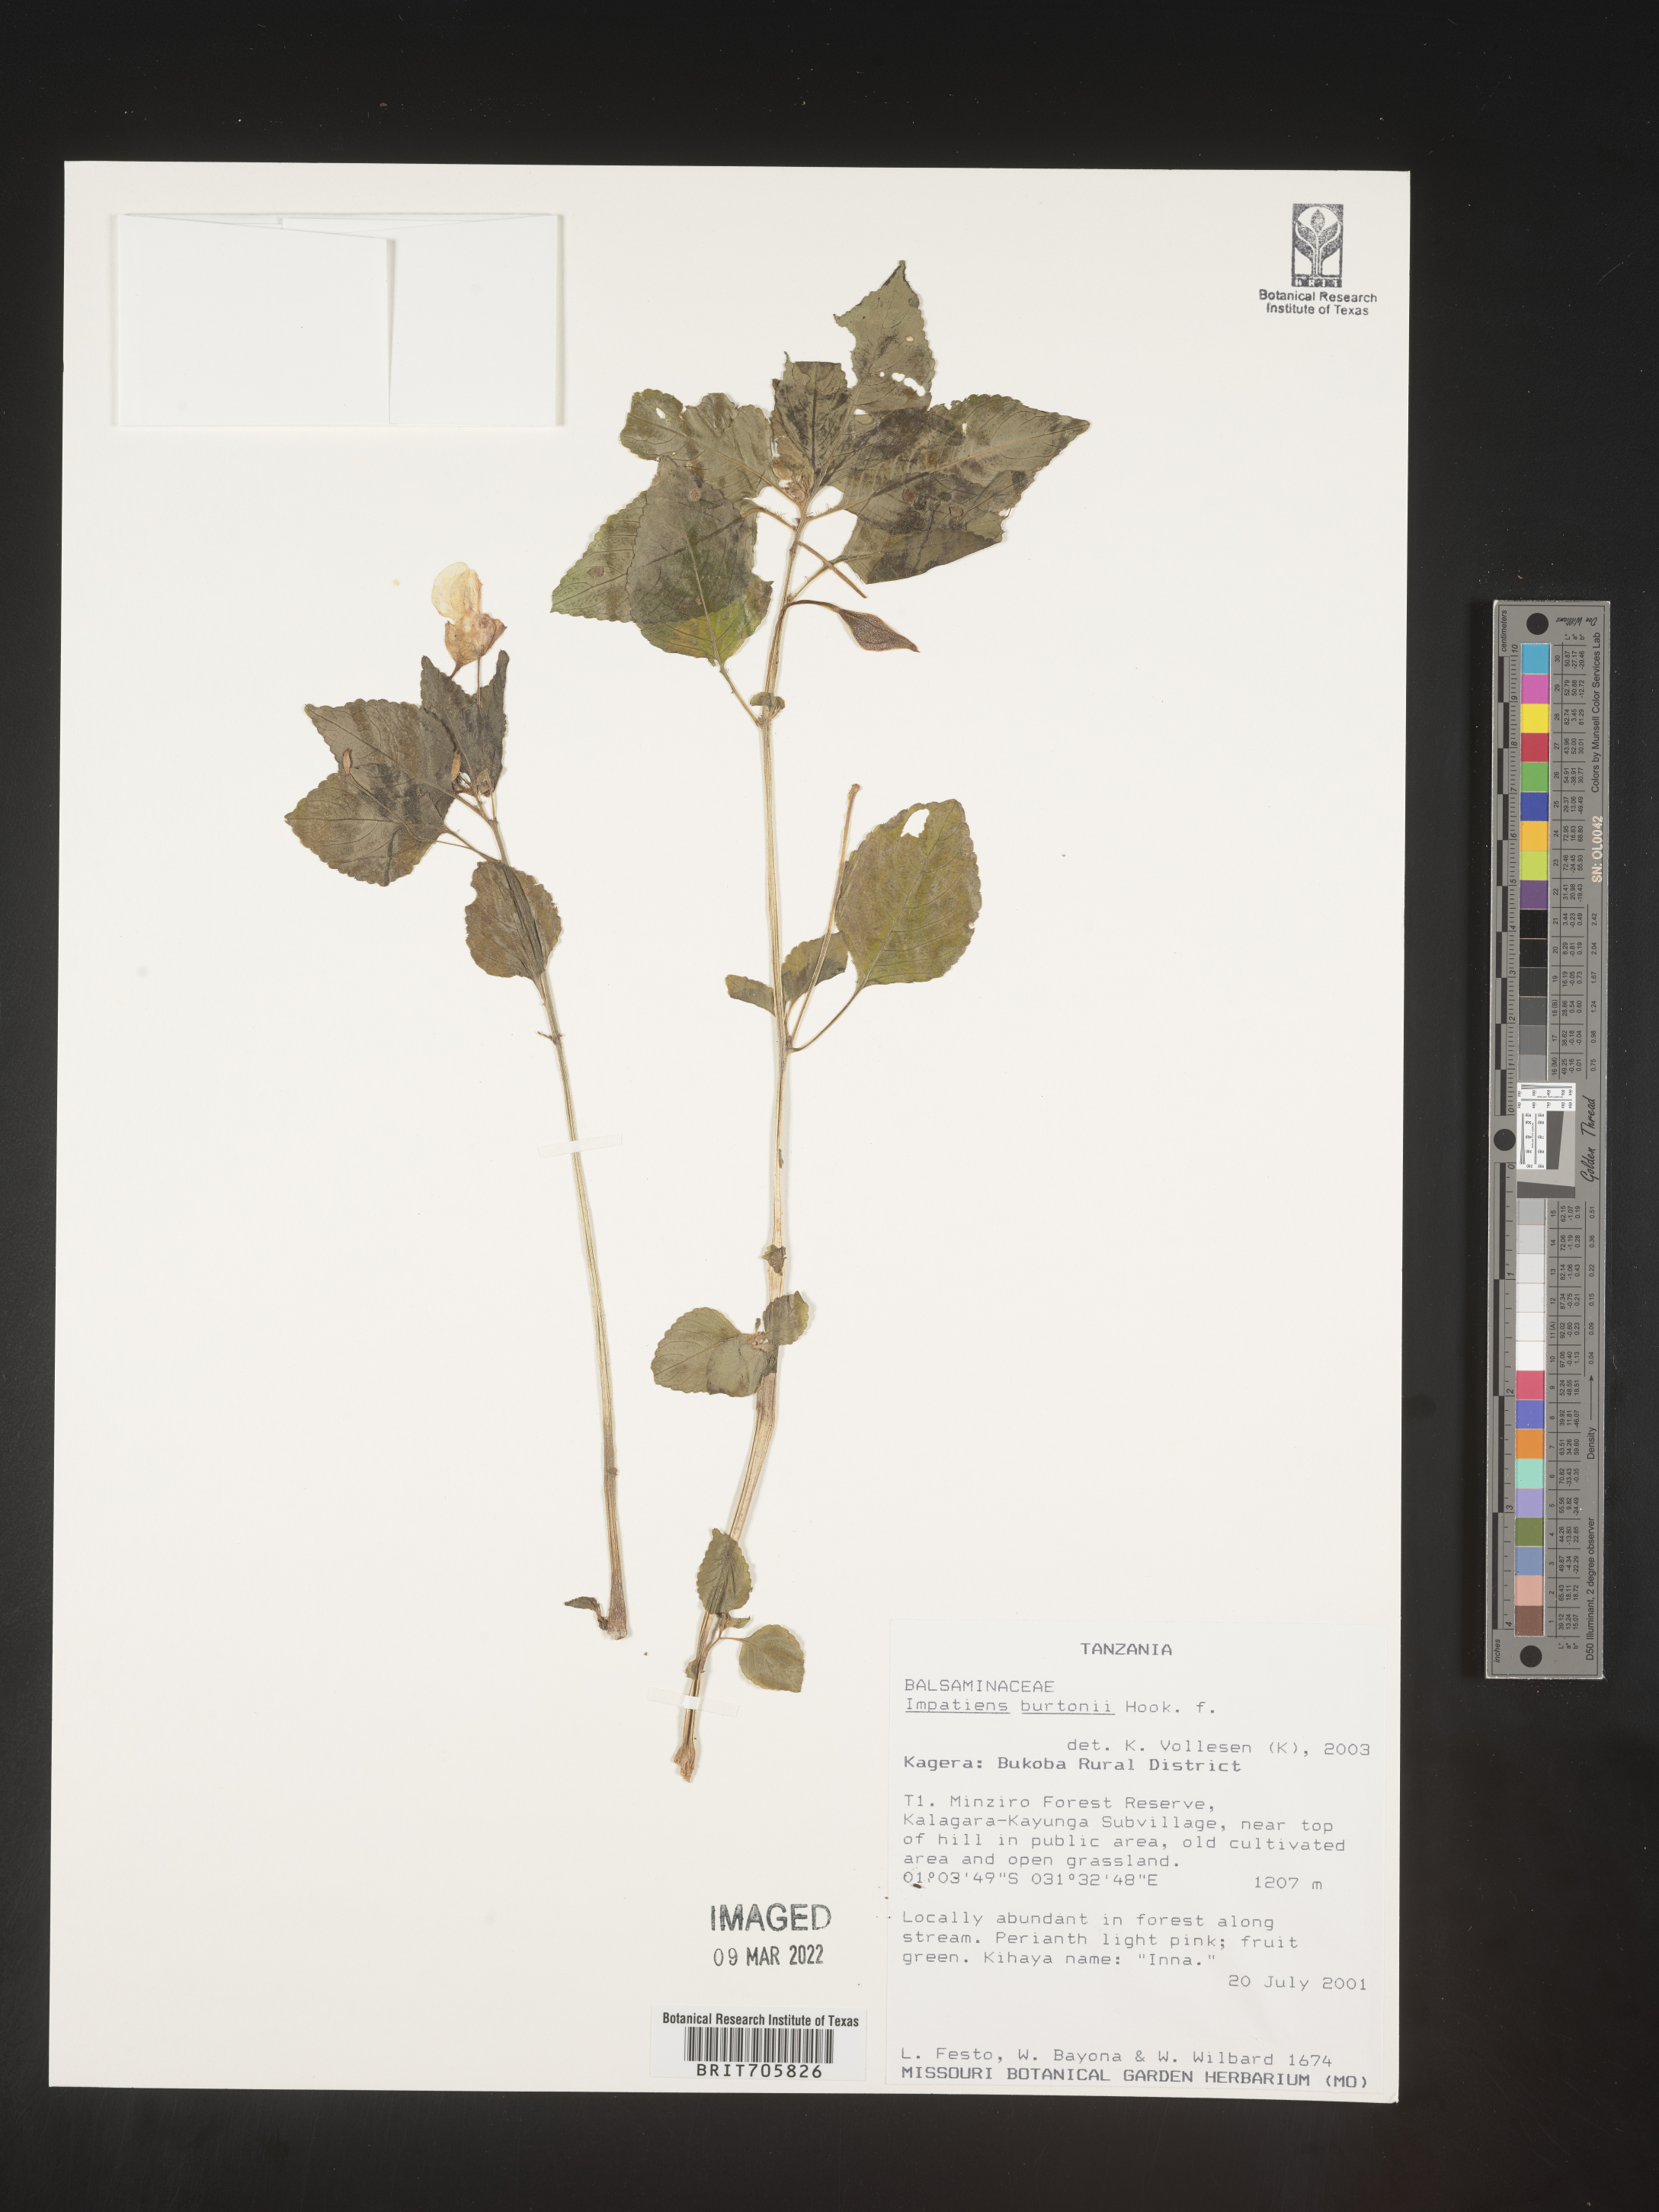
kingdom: Plantae
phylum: Tracheophyta
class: Magnoliopsida
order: Ericales
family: Balsaminaceae
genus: Impatiens
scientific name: Impatiens
